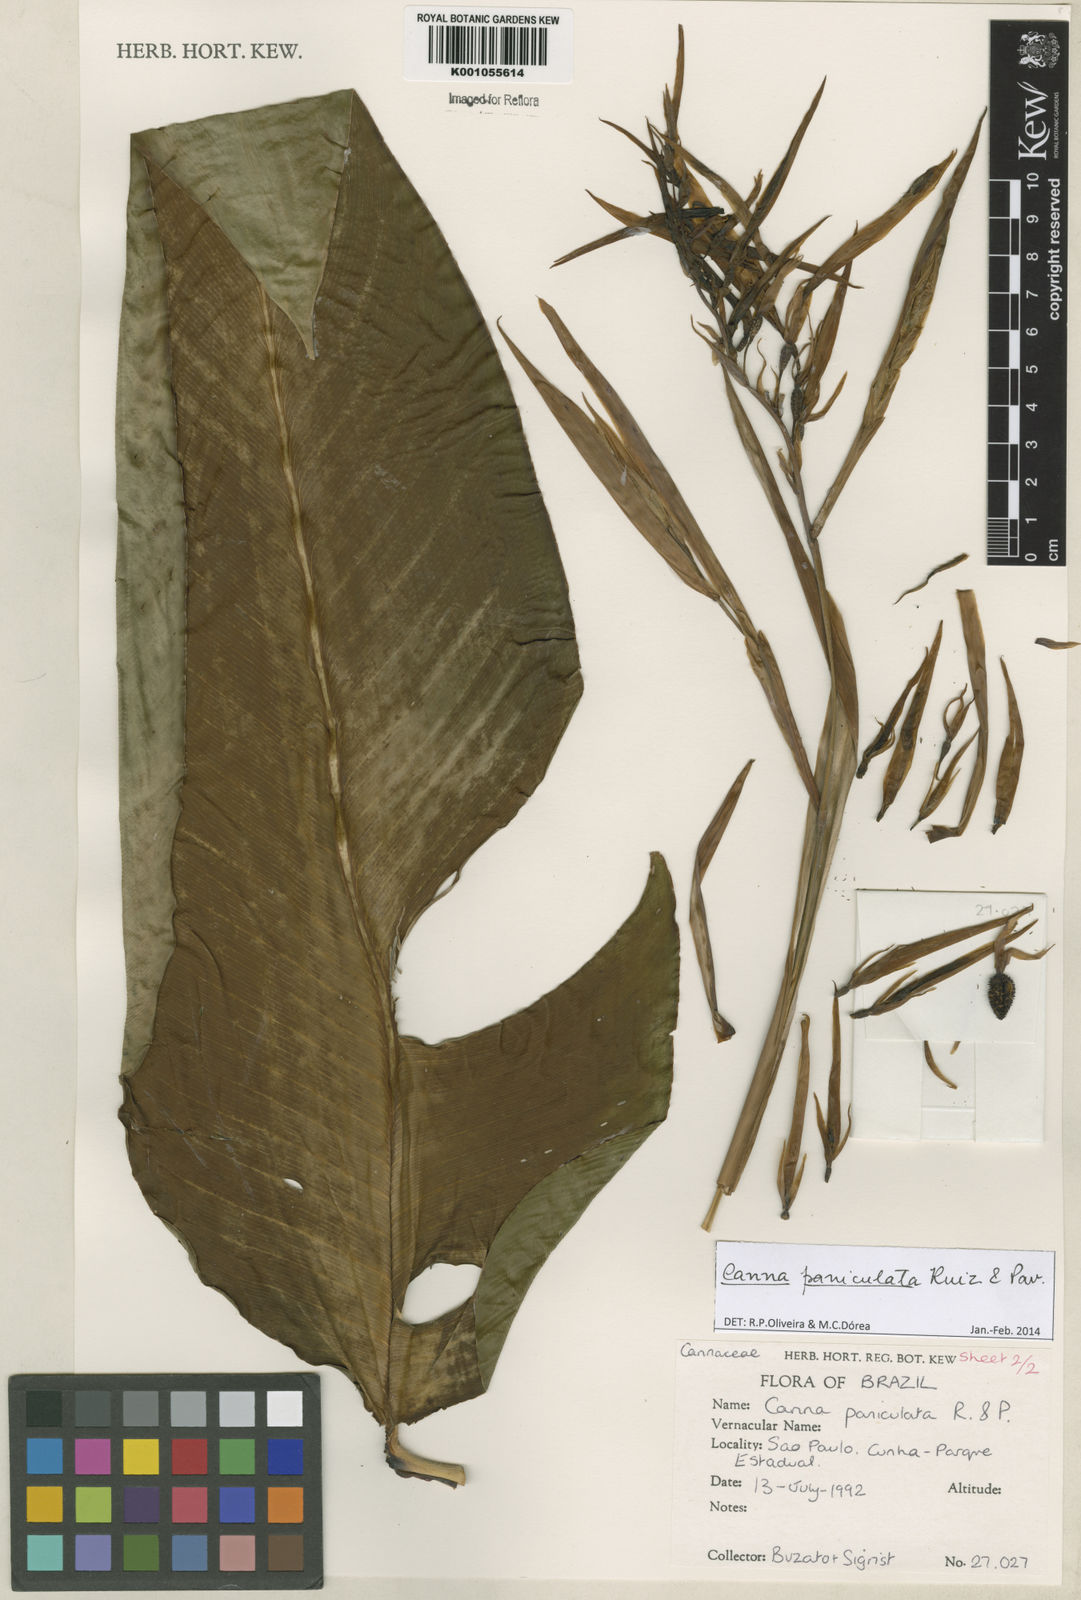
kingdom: Plantae
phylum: Tracheophyta
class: Liliopsida
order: Zingiberales
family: Cannaceae
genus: Canna
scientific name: Canna paniculata
